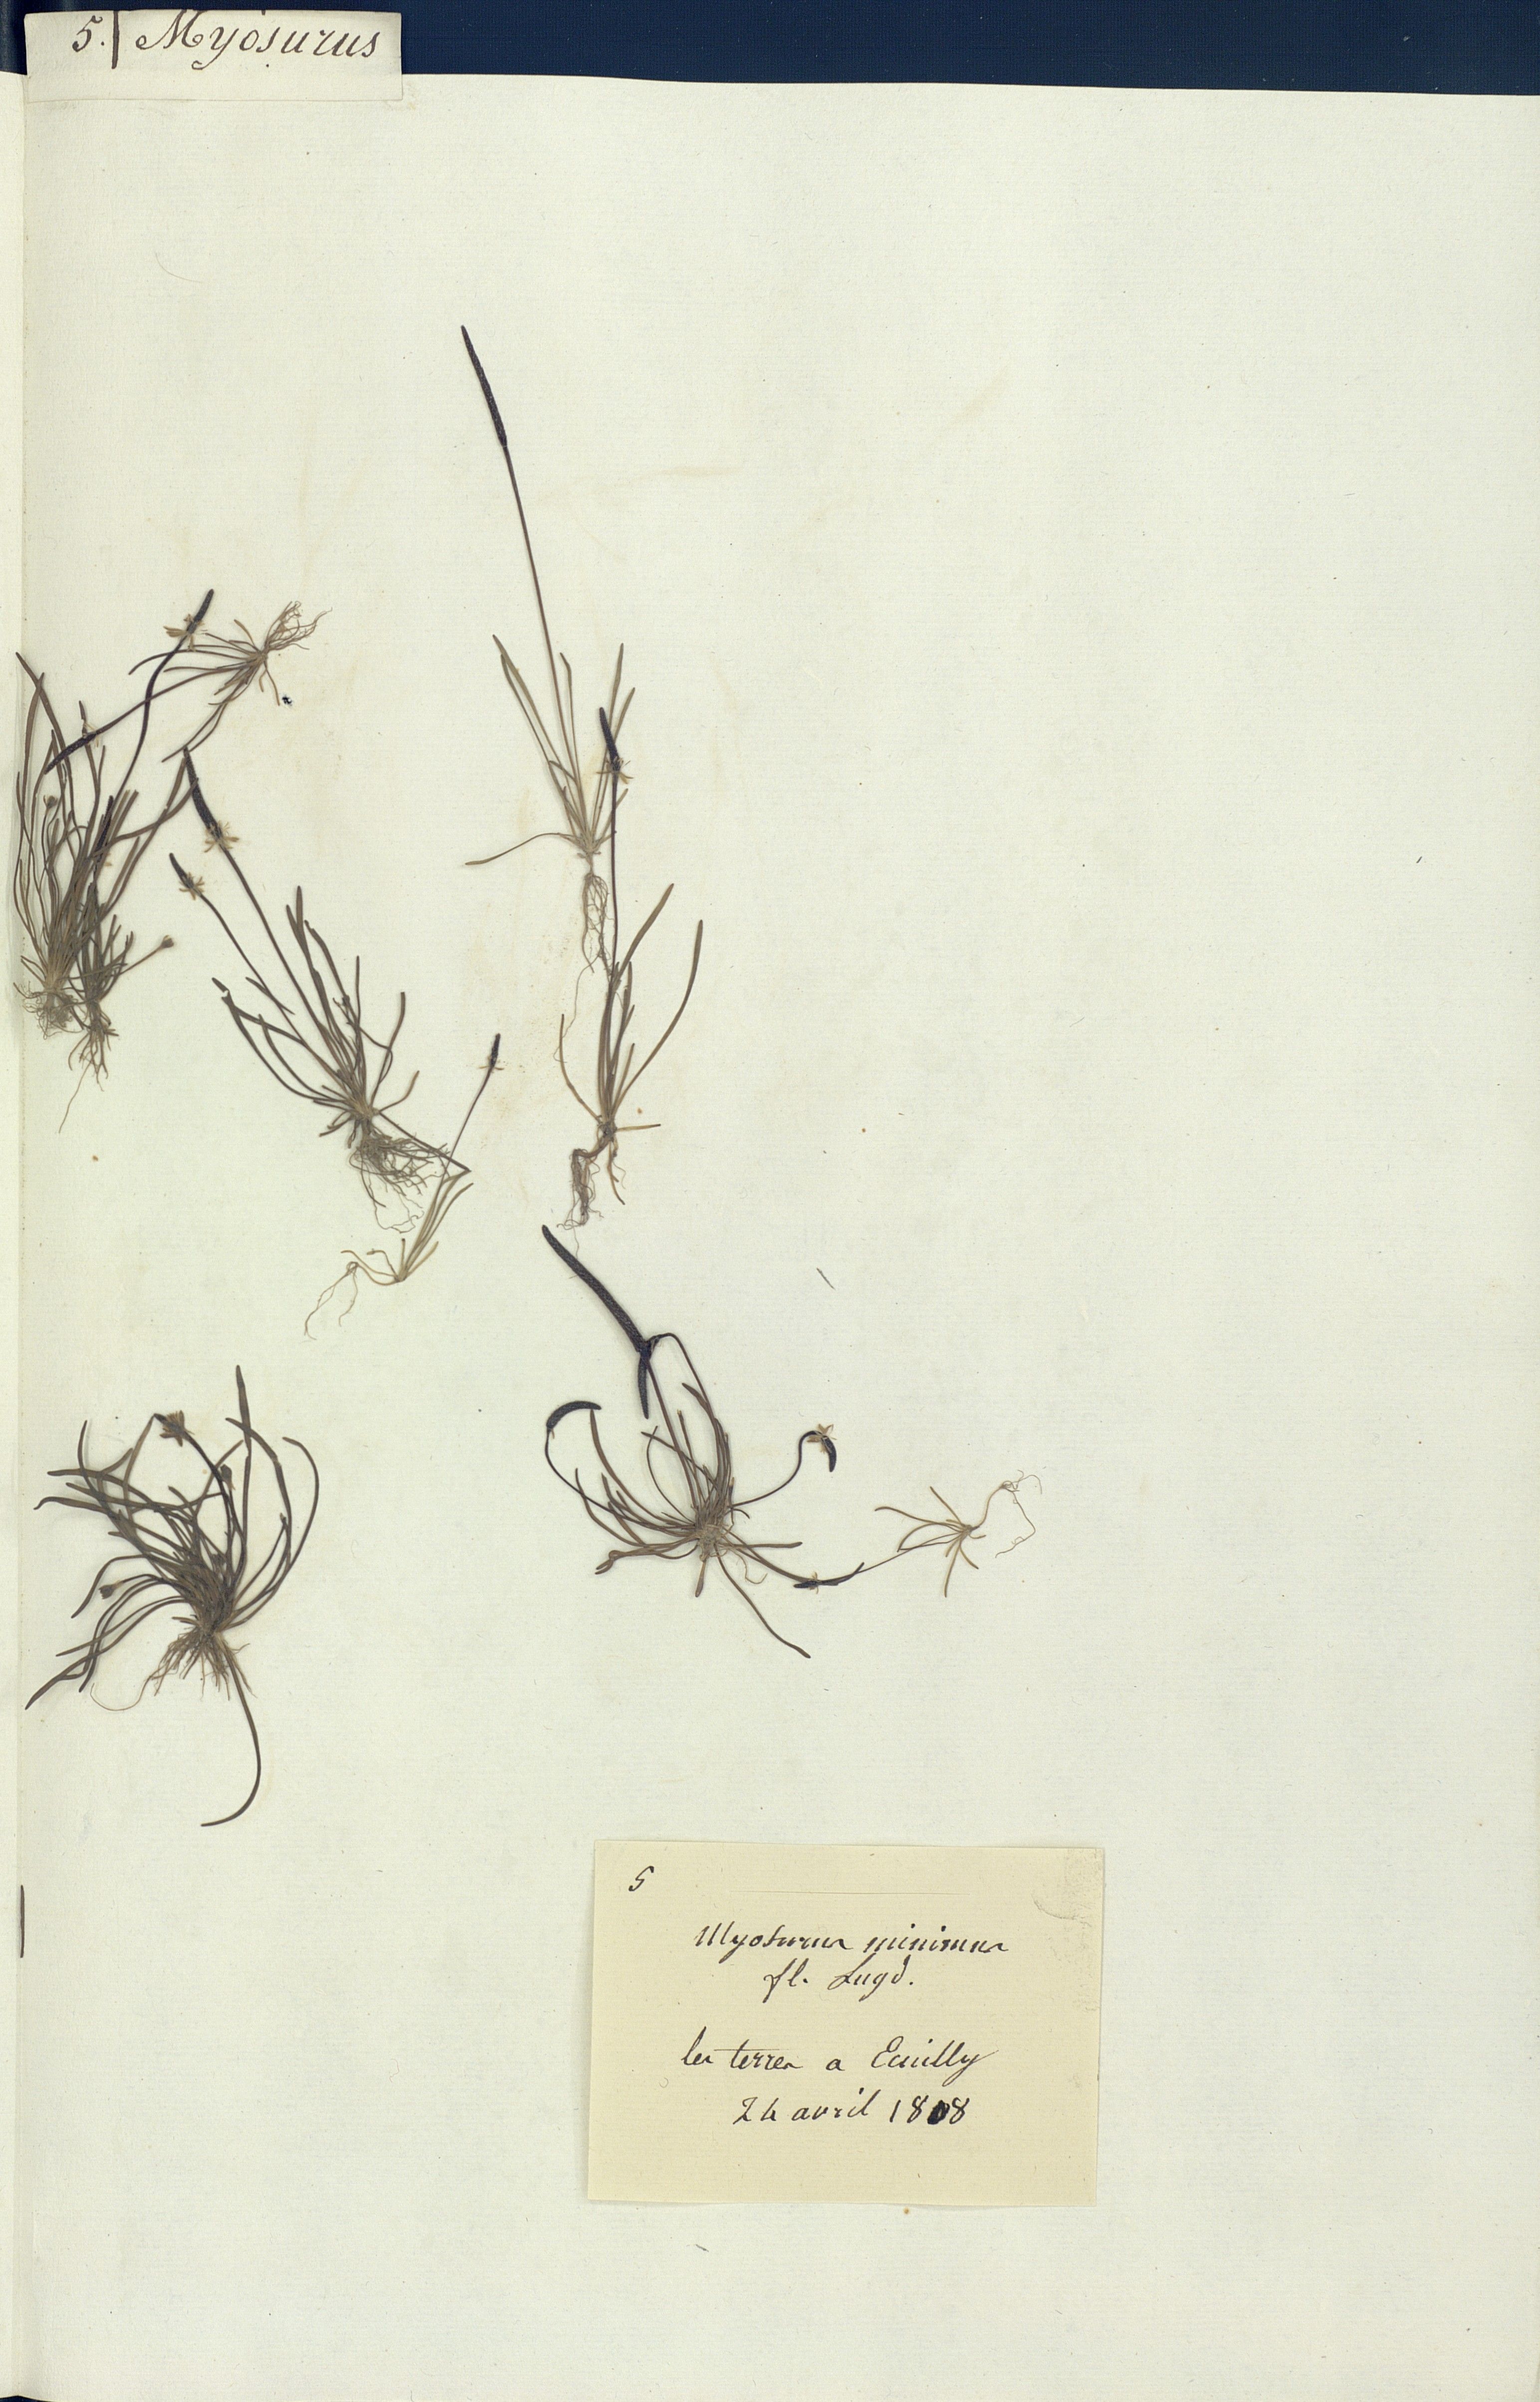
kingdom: Plantae
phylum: Tracheophyta
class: Magnoliopsida
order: Ranunculales
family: Ranunculaceae
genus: Myosurus
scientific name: Myosurus minimus
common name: Mousetail
